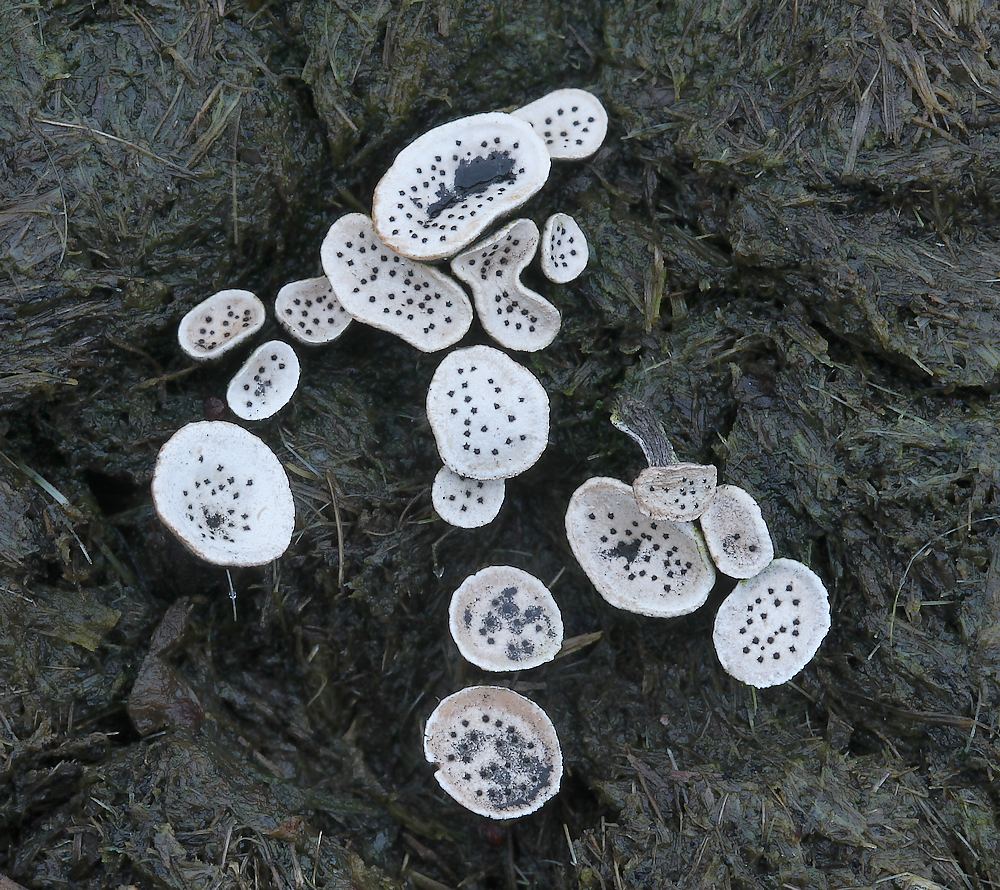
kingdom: Fungi
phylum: Ascomycota
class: Sordariomycetes
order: Xylariales
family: Xylariaceae
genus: Poronia
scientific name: Poronia punctata
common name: stor priksvamp
